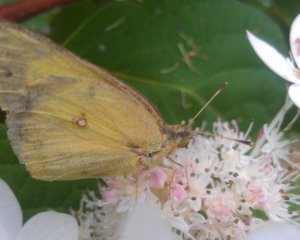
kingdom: Animalia
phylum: Arthropoda
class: Insecta
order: Lepidoptera
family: Pieridae
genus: Colias
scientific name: Colias philodice
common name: Clouded Sulphur
